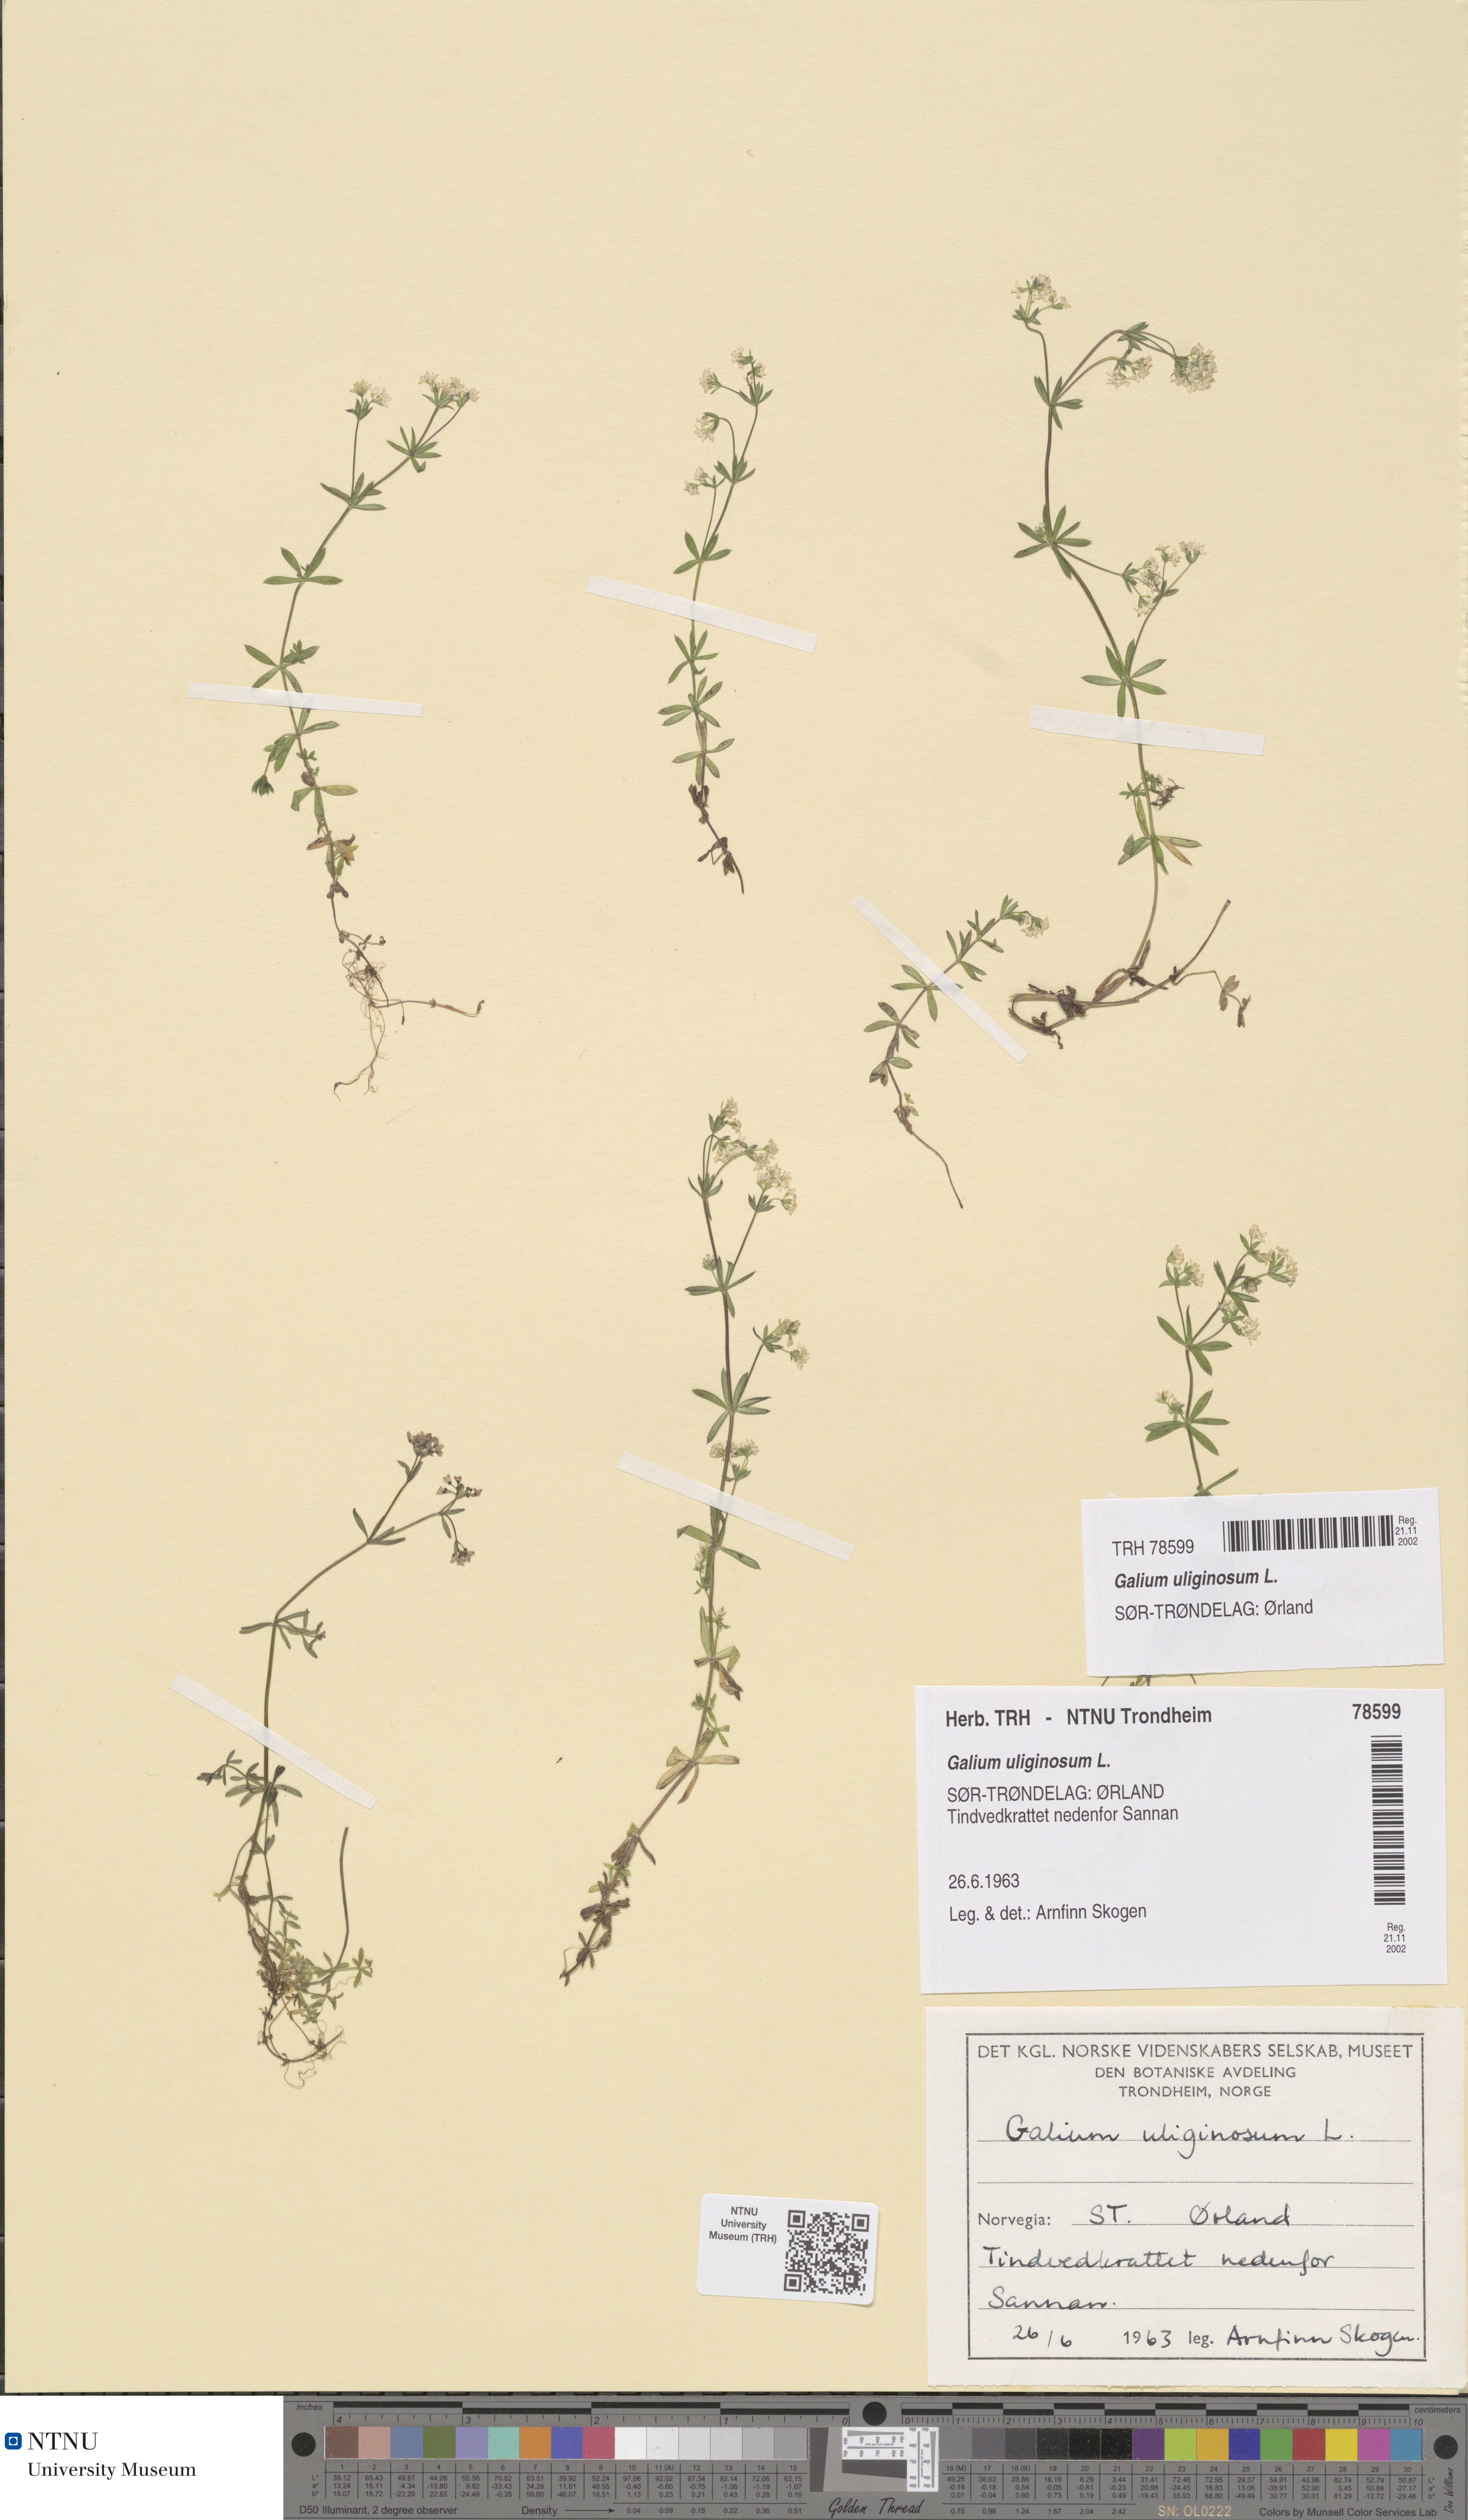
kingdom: Plantae
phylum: Tracheophyta
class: Magnoliopsida
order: Gentianales
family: Rubiaceae
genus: Galium
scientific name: Galium uliginosum
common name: Fen bedstraw
